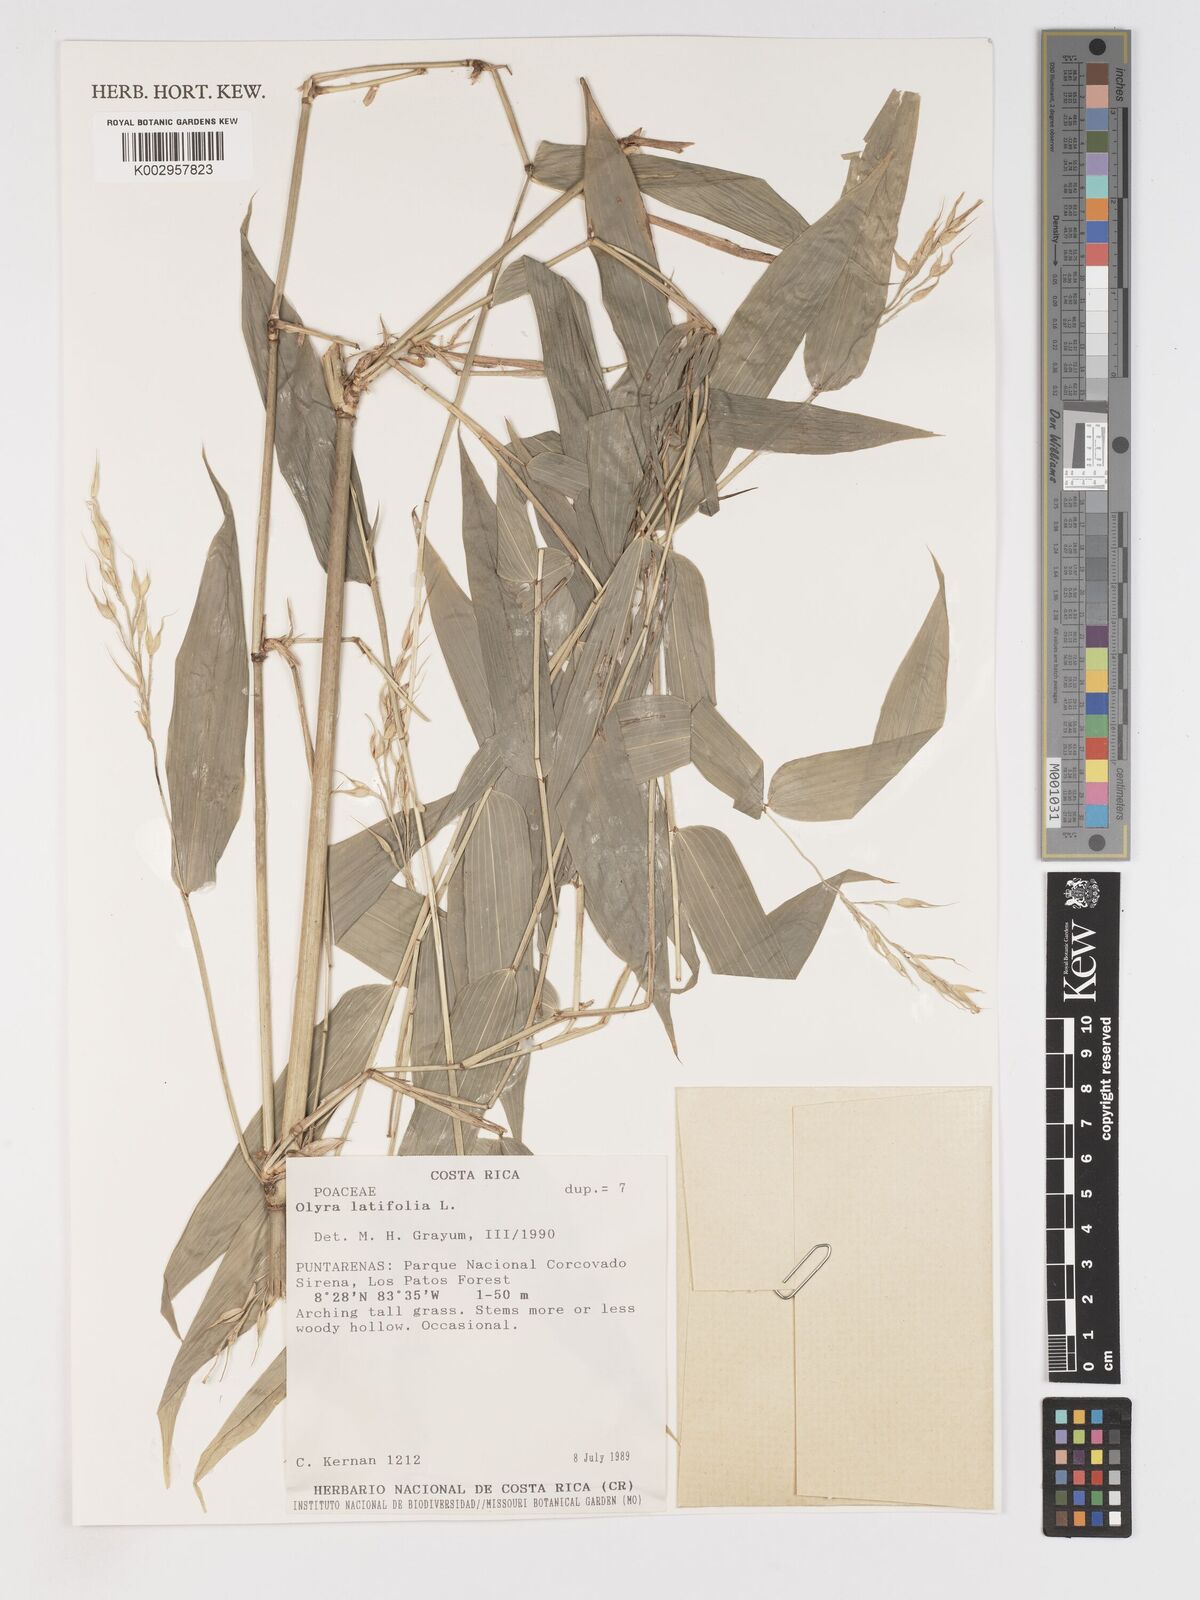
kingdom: Plantae
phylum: Tracheophyta
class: Liliopsida
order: Poales
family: Poaceae
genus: Olyra
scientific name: Olyra latifolia
